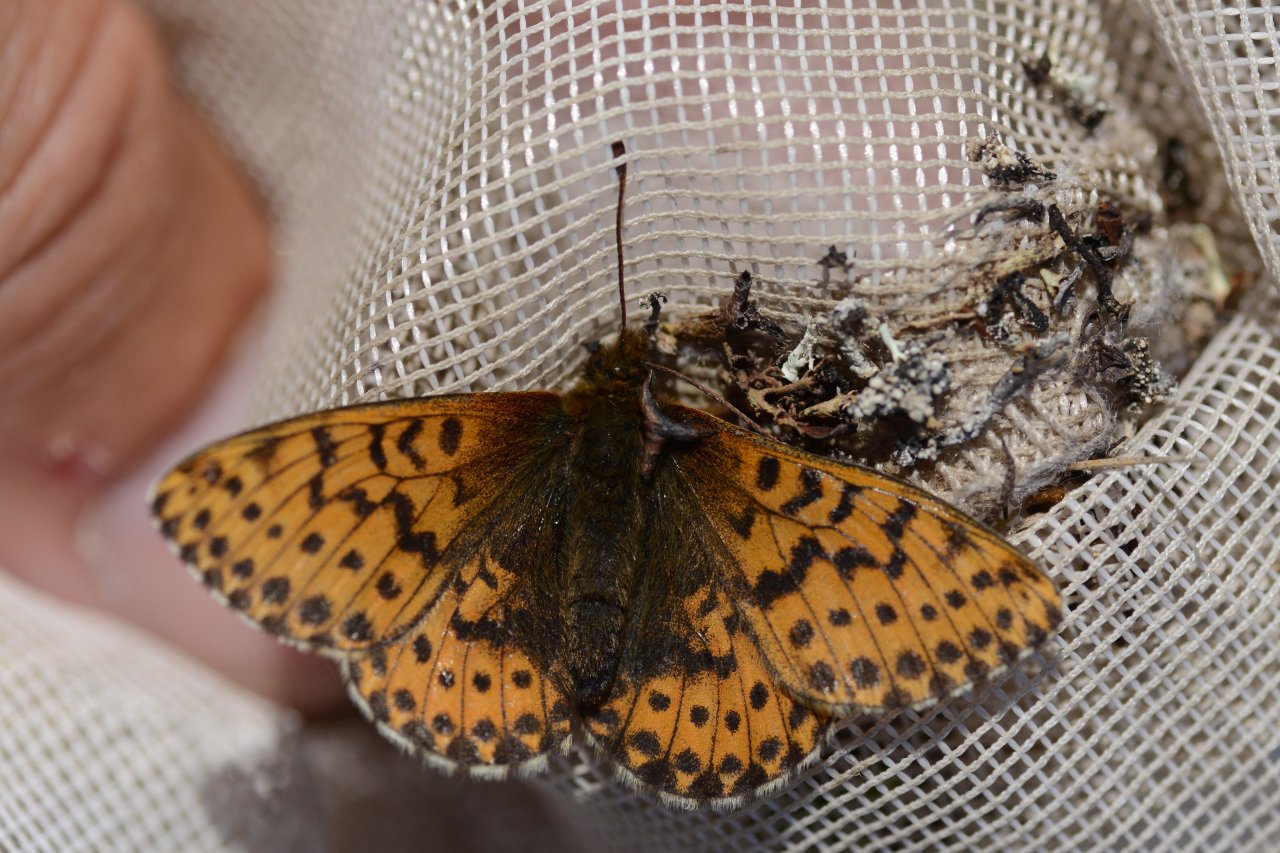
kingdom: Animalia
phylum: Arthropoda
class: Insecta
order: Lepidoptera
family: Nymphalidae
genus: Clossiana
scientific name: Clossiana polaris
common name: Polaris Fritillary
